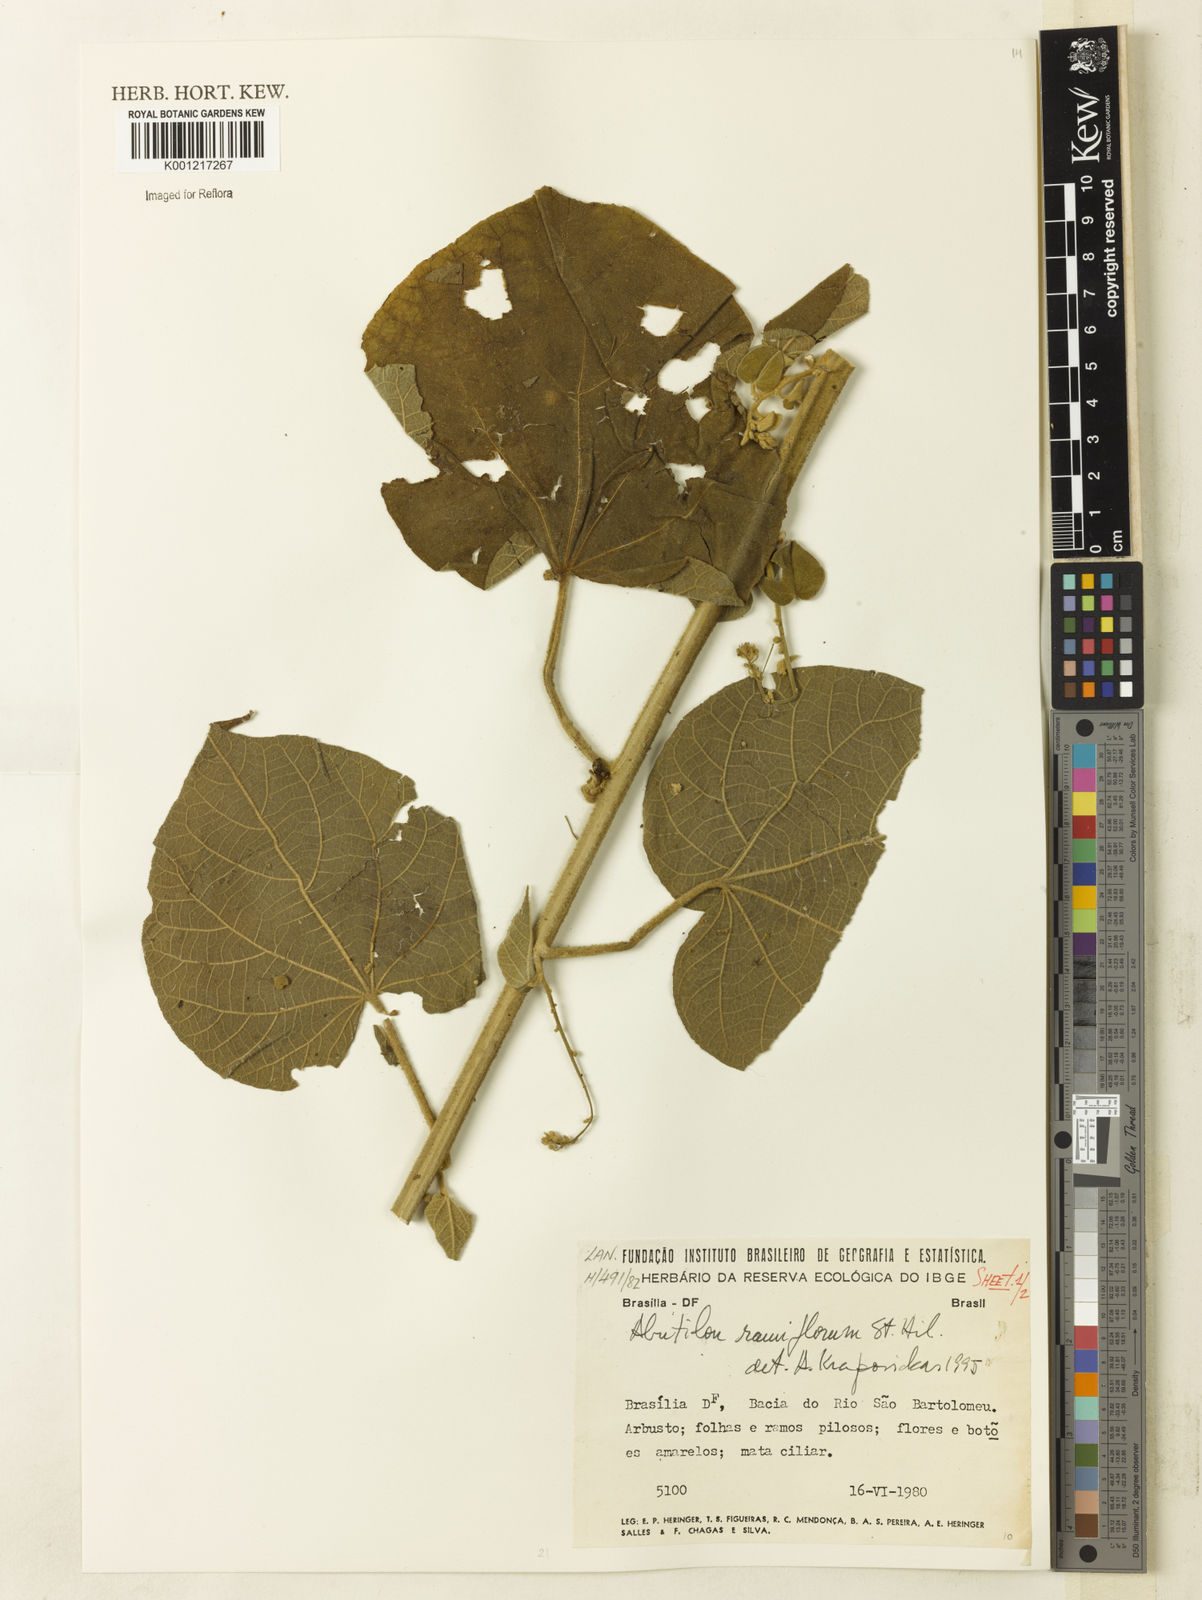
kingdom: Plantae
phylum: Tracheophyta
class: Magnoliopsida
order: Malvales
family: Malvaceae
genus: Abutilon
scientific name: Abutilon ramiflorum
